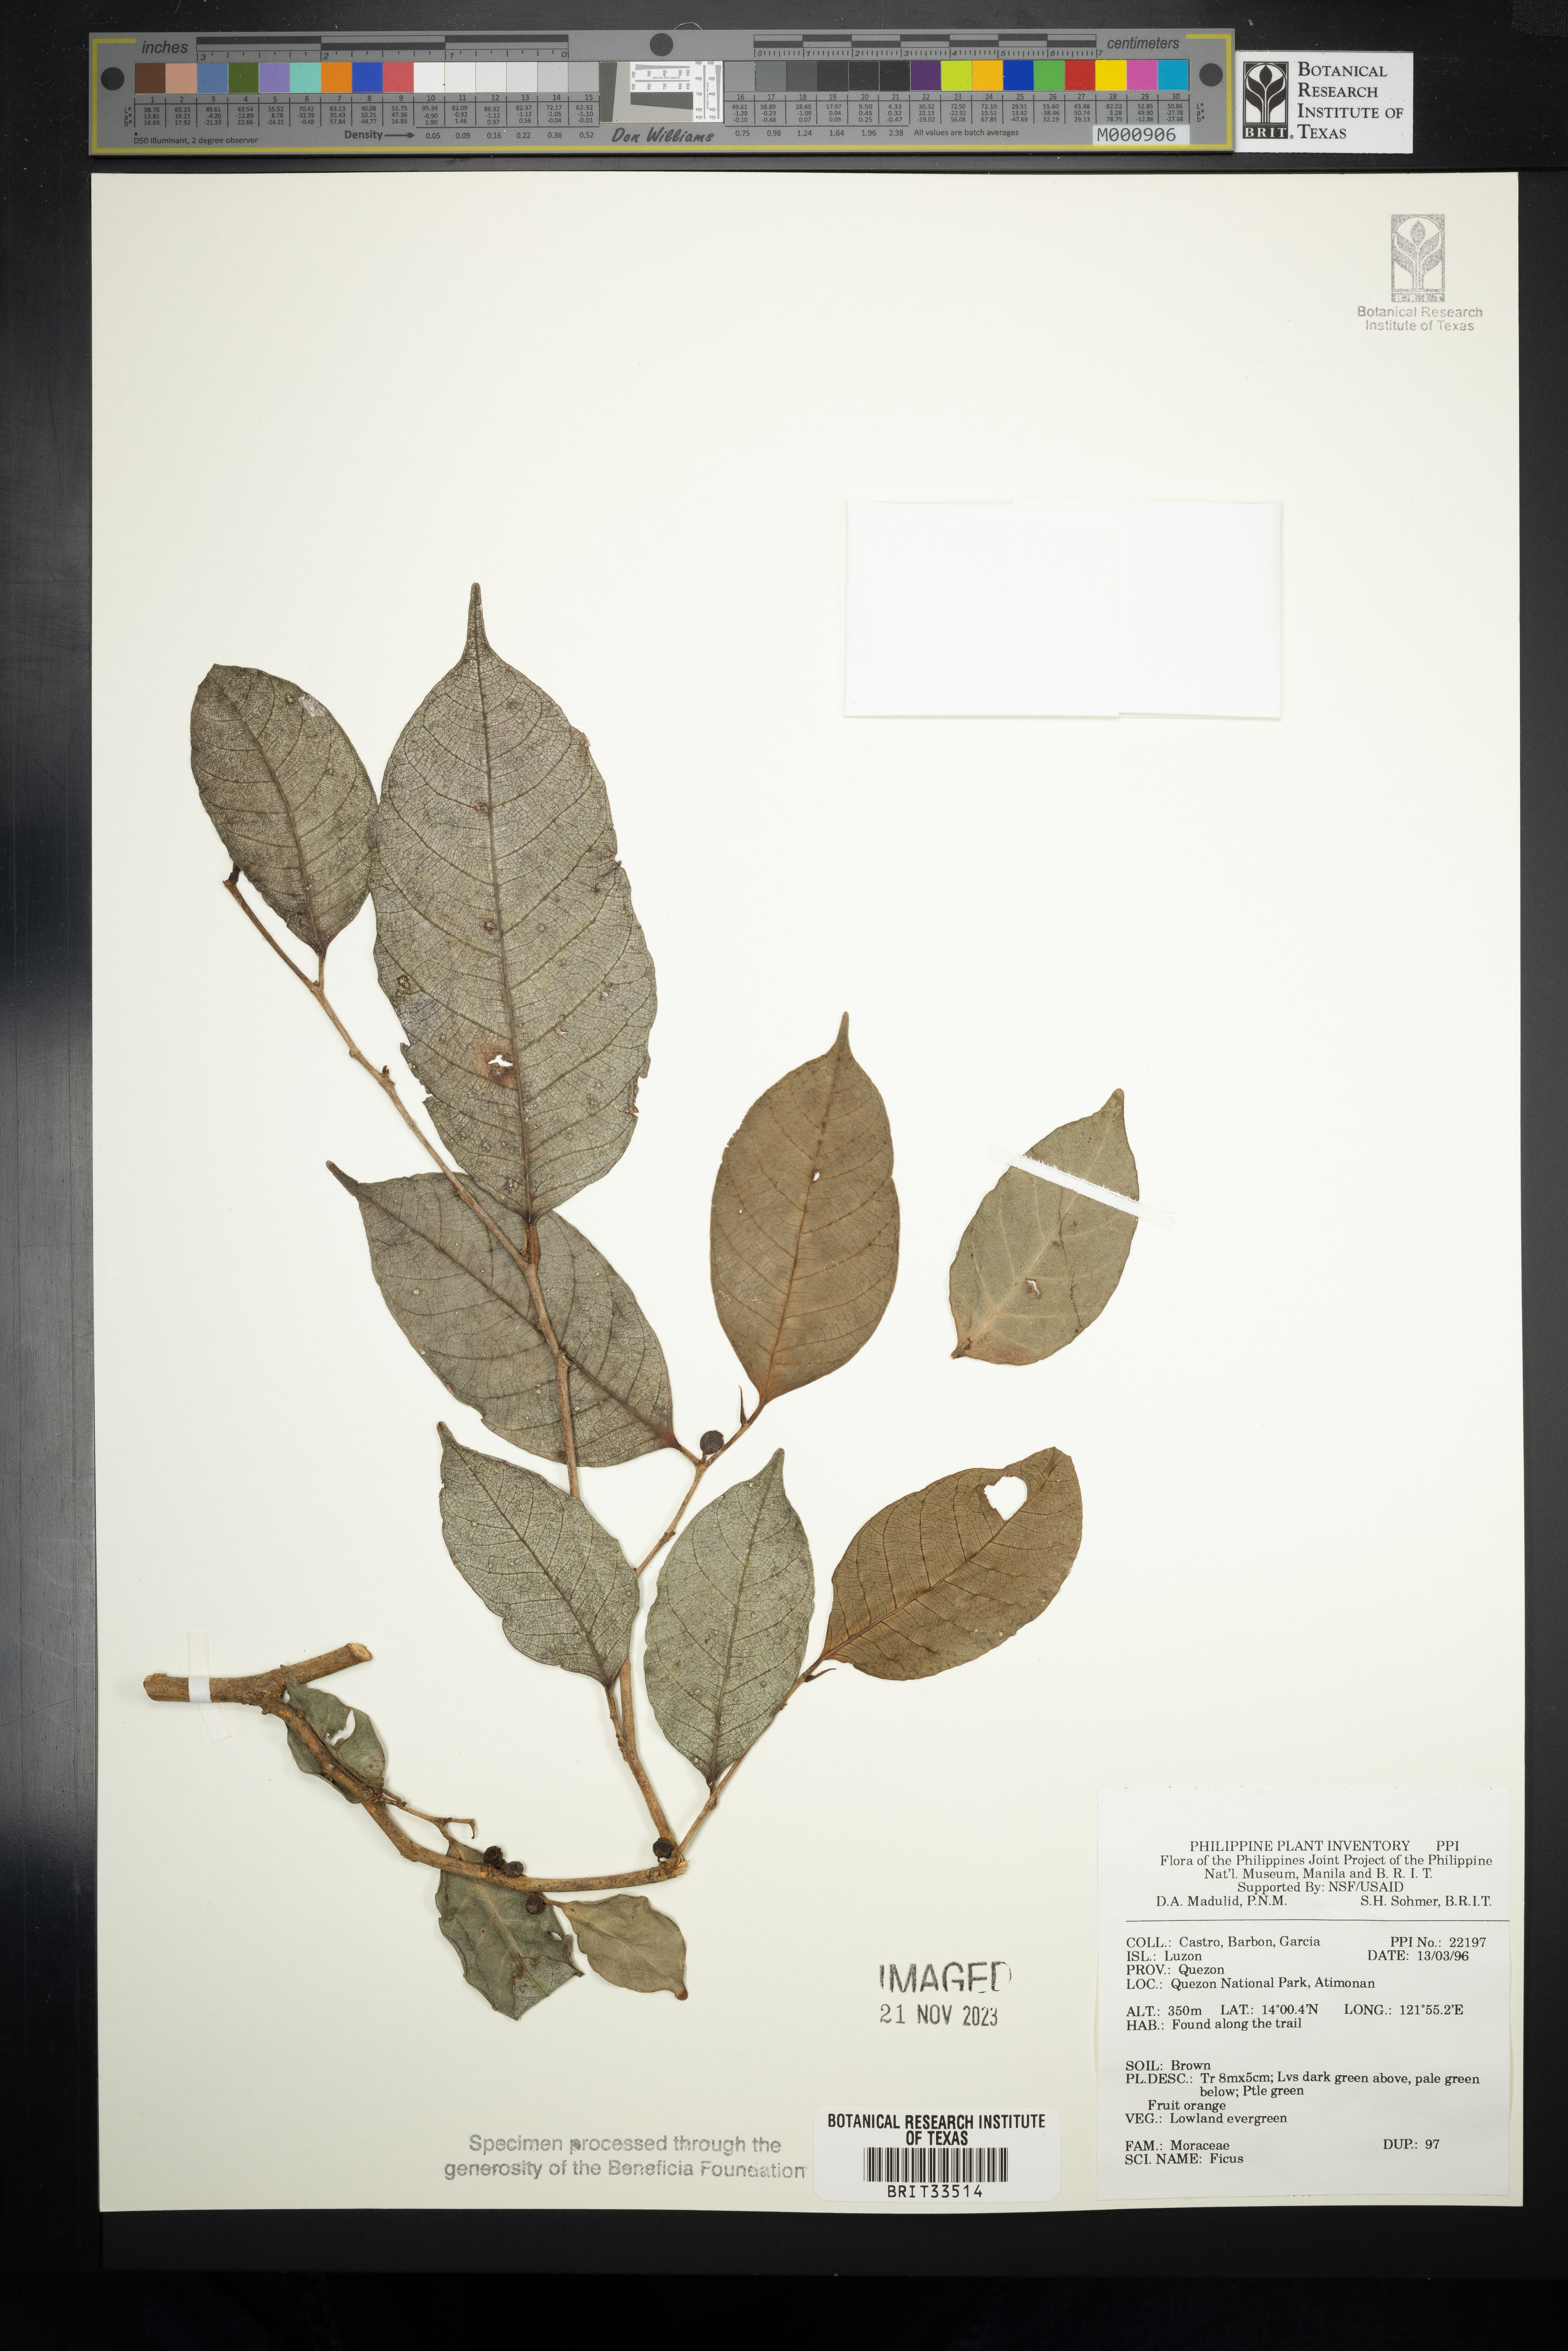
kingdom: Plantae
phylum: Tracheophyta
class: Magnoliopsida
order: Rosales
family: Moraceae
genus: Ficus
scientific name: Ficus
